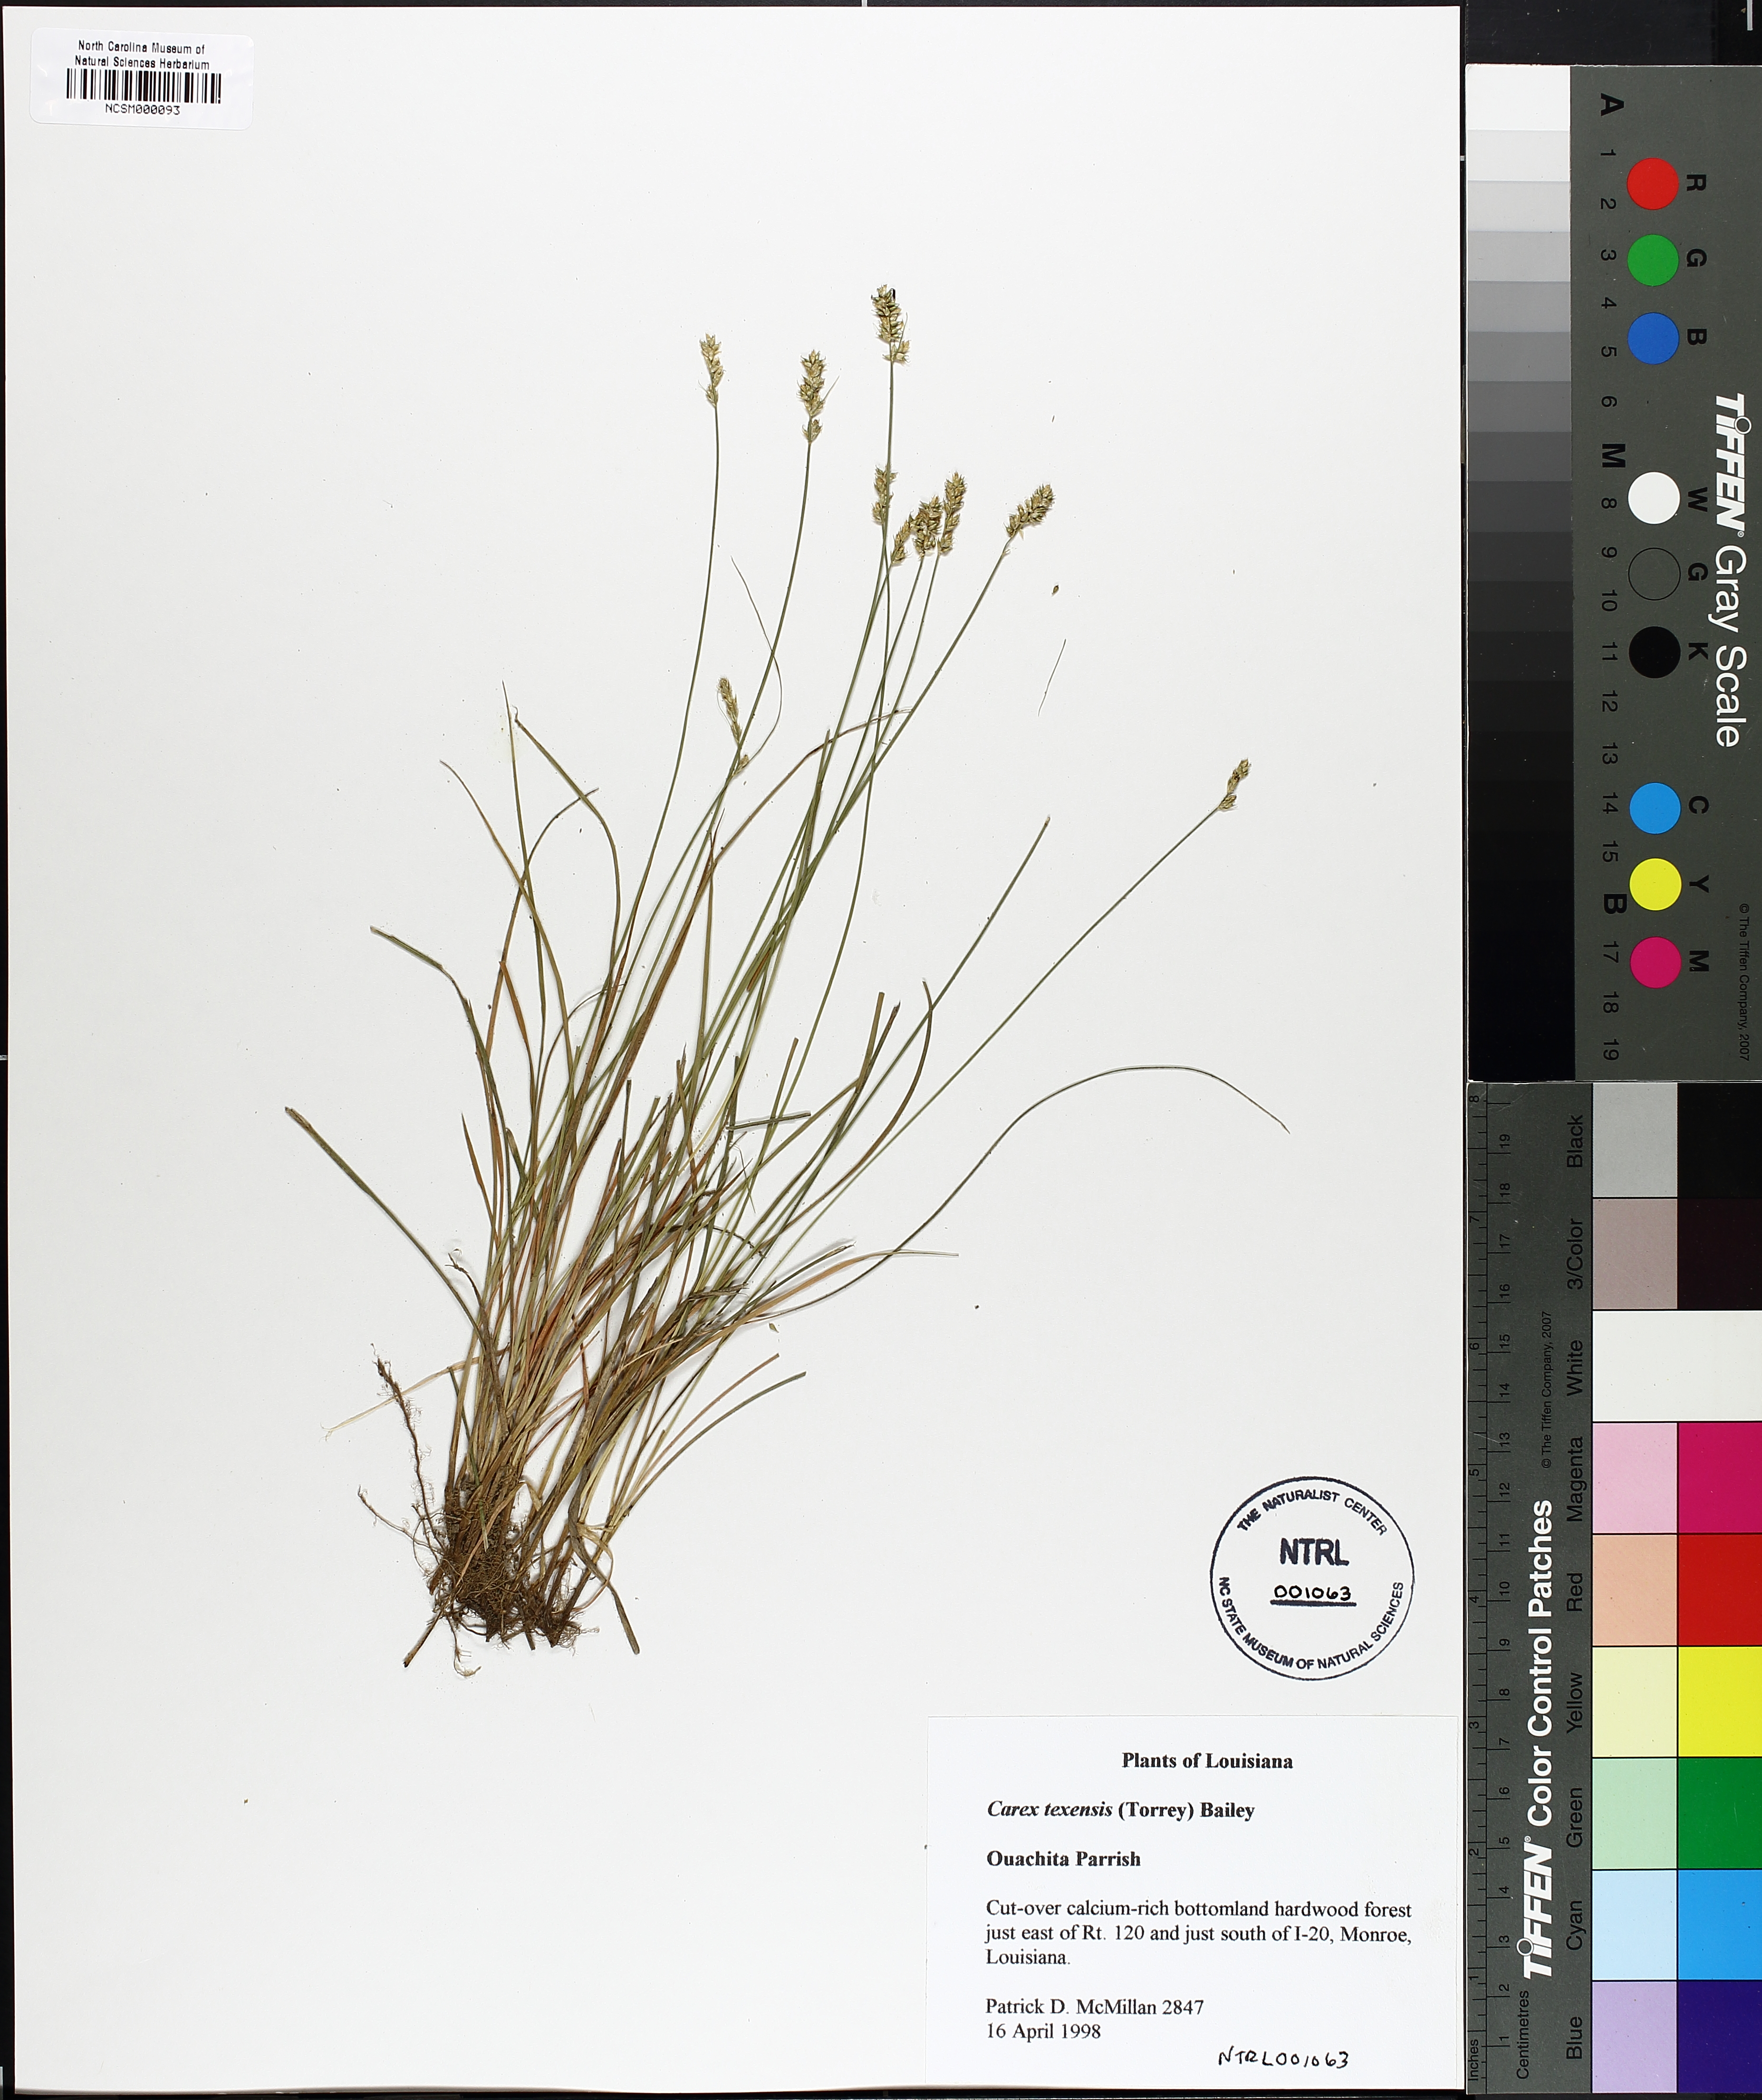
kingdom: Plantae
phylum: Tracheophyta
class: Liliopsida
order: Poales
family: Cyperaceae
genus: Carex
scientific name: Carex texensis
